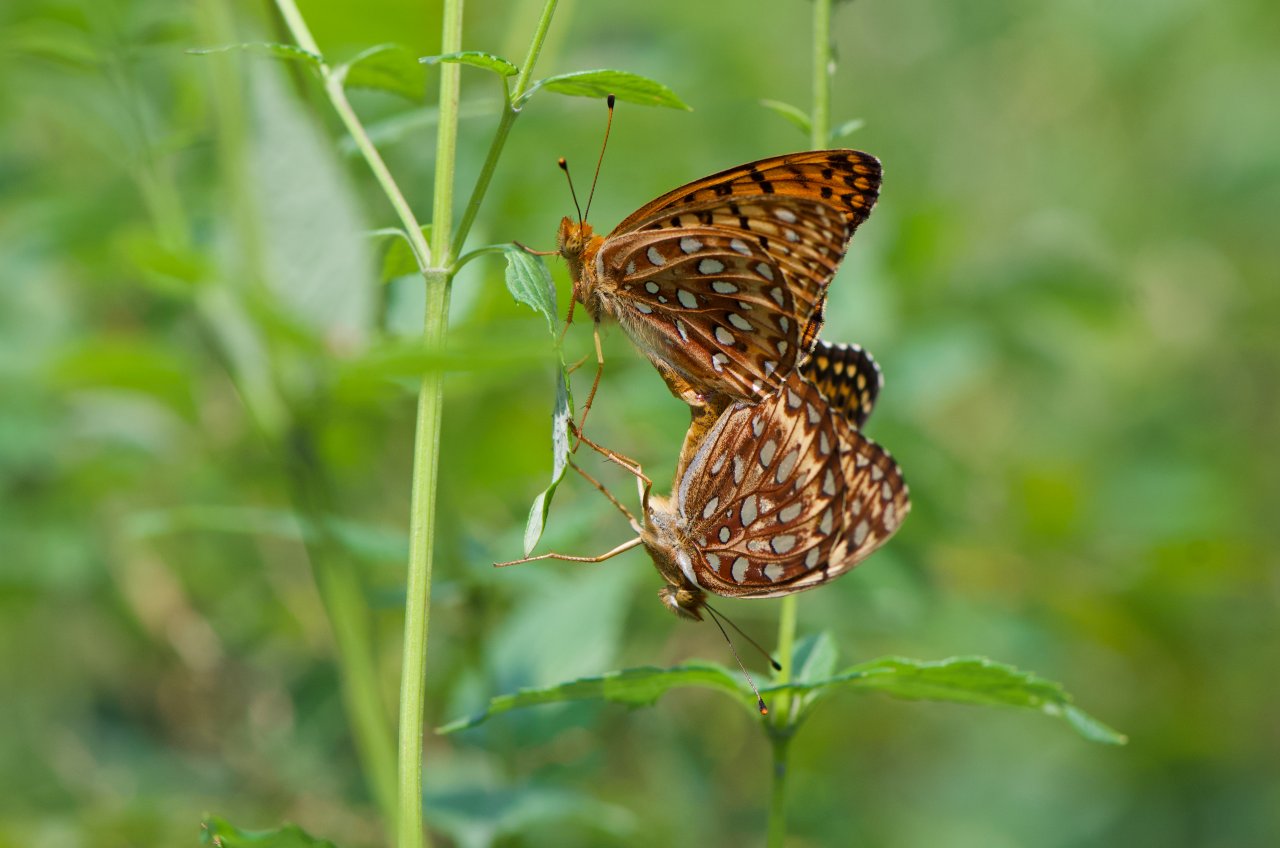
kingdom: Animalia
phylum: Arthropoda
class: Insecta
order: Lepidoptera
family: Nymphalidae
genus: Speyeria
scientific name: Speyeria aphrodite
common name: Aphrodite Fritillary
